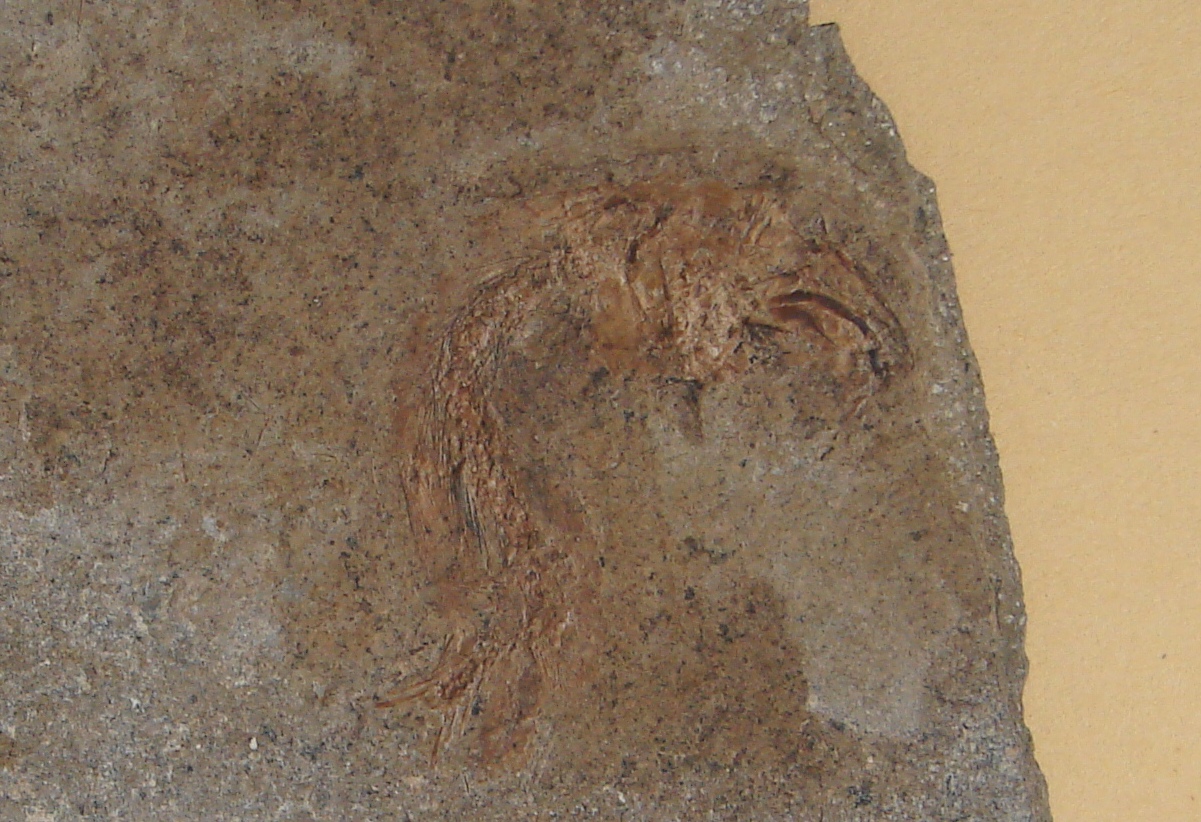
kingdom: Animalia
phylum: Chordata
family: Leptolepididae
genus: Leptolepis
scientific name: Leptolepis normandica
